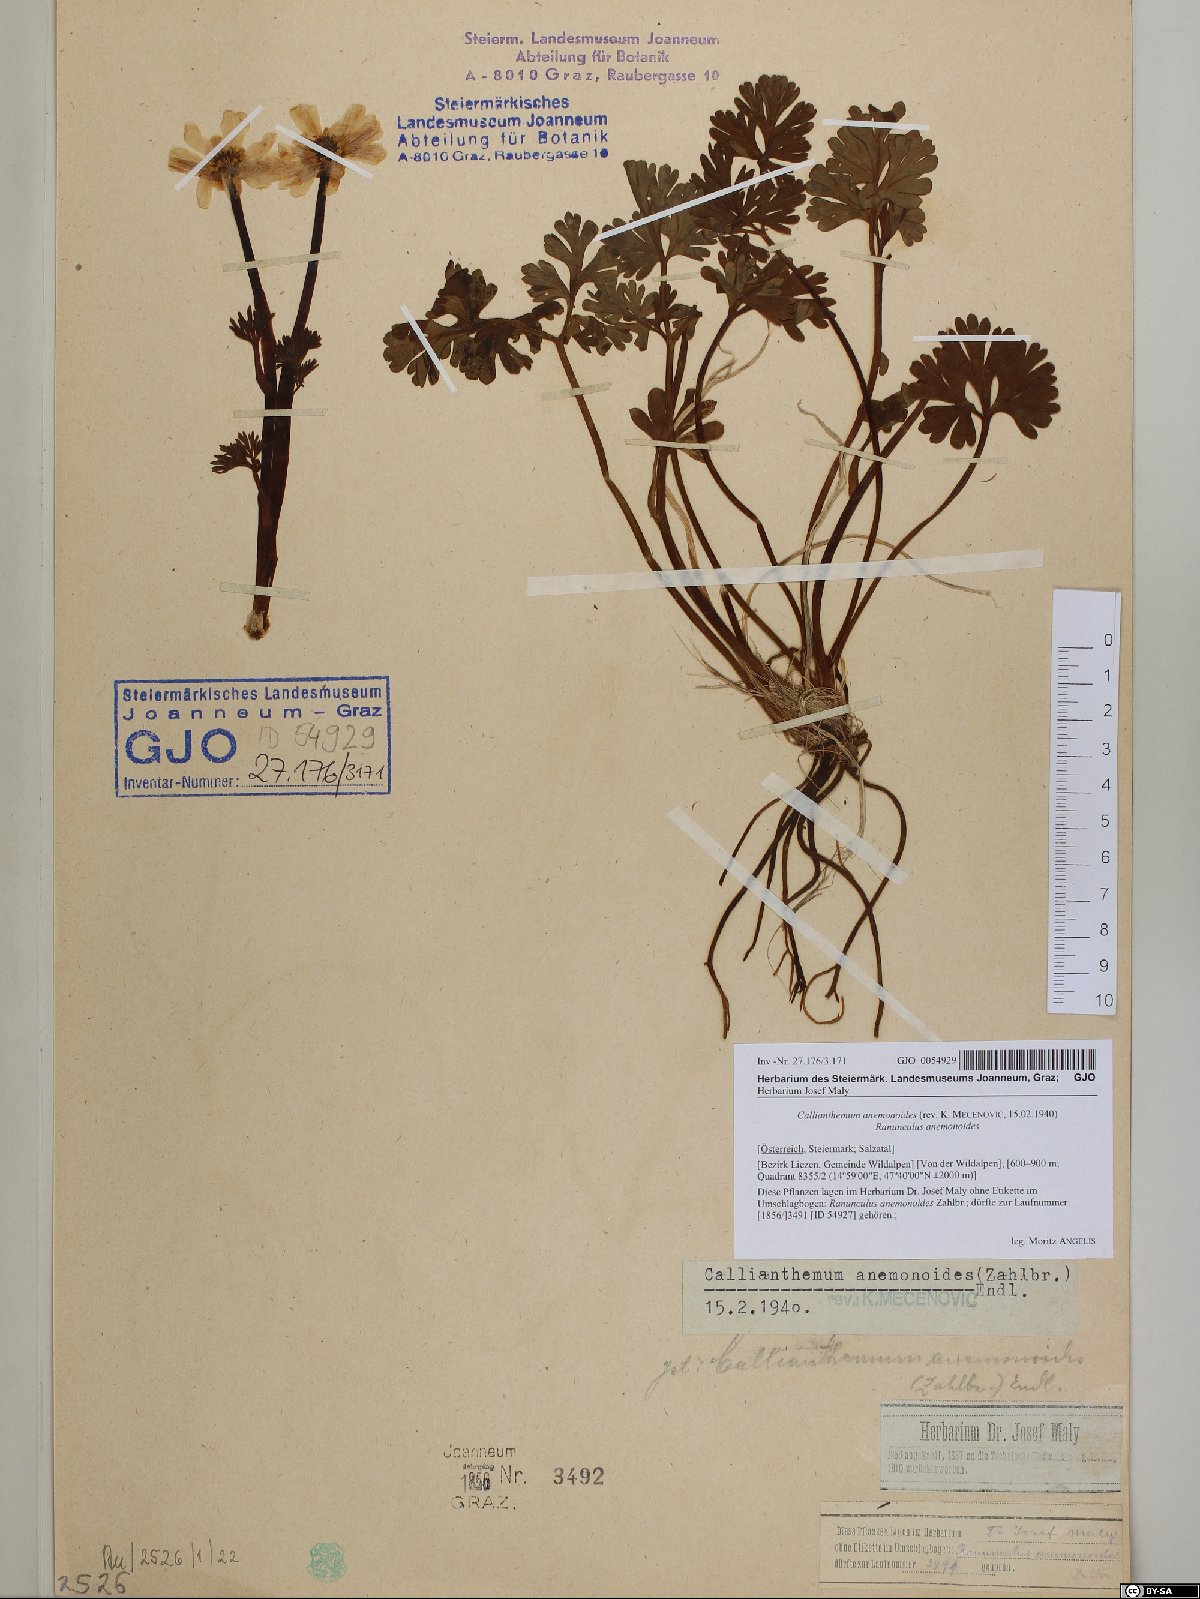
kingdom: Plantae
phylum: Tracheophyta
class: Magnoliopsida
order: Ranunculales
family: Ranunculaceae
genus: Callianthemum
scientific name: Callianthemum anemonoides
